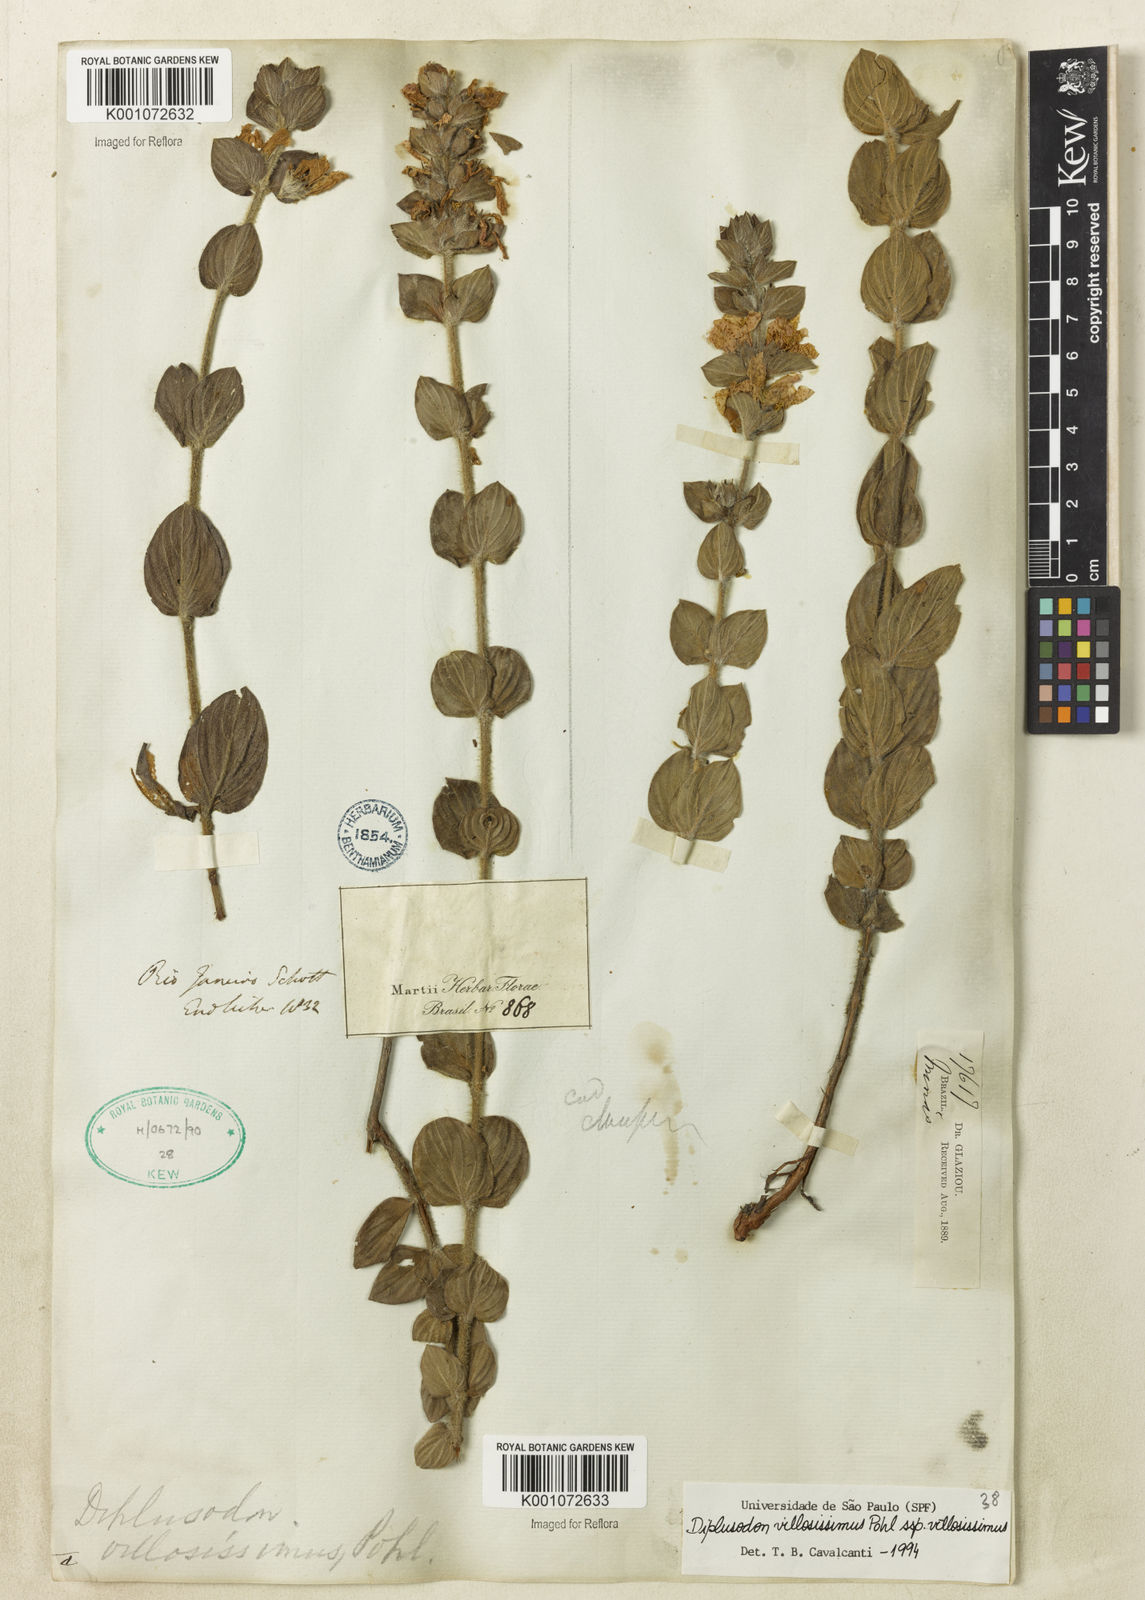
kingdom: Plantae
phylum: Tracheophyta
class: Magnoliopsida
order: Myrtales
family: Lythraceae
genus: Diplusodon
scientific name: Diplusodon villosissimus
